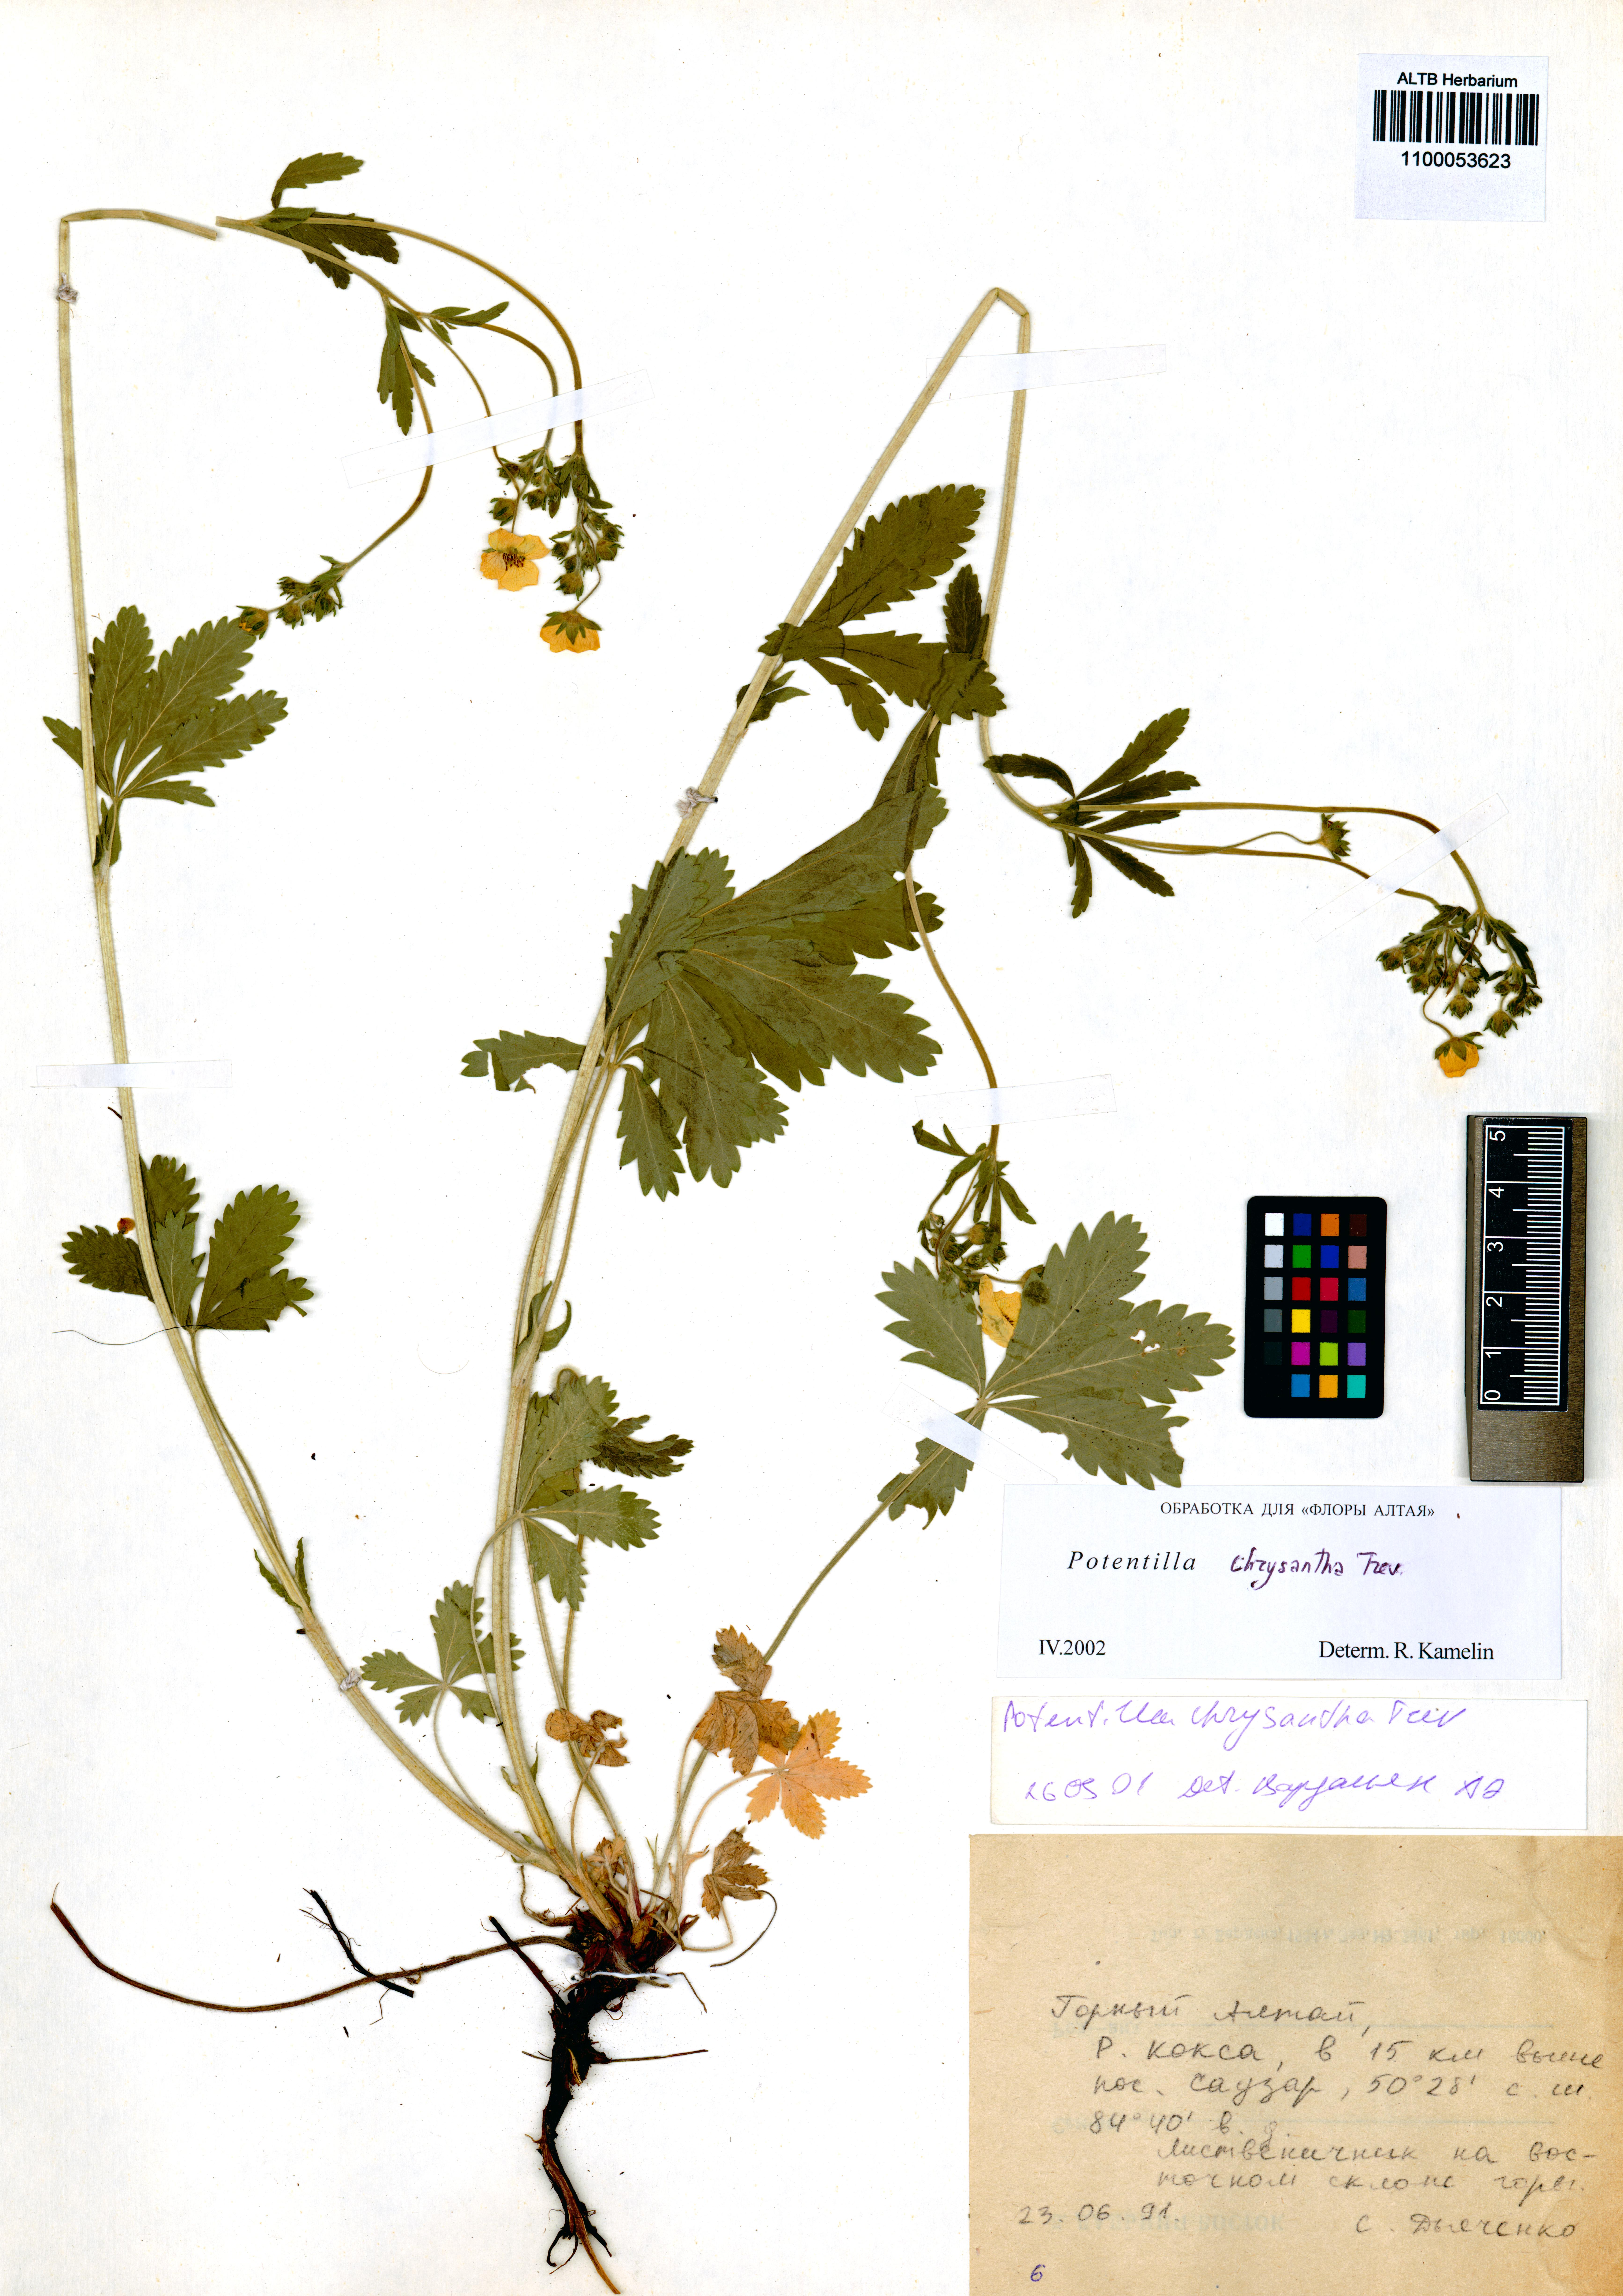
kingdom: Plantae
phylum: Tracheophyta
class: Magnoliopsida
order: Rosales
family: Rosaceae
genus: Potentilla
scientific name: Potentilla chrysantha
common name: Thuringian cinquefoil
